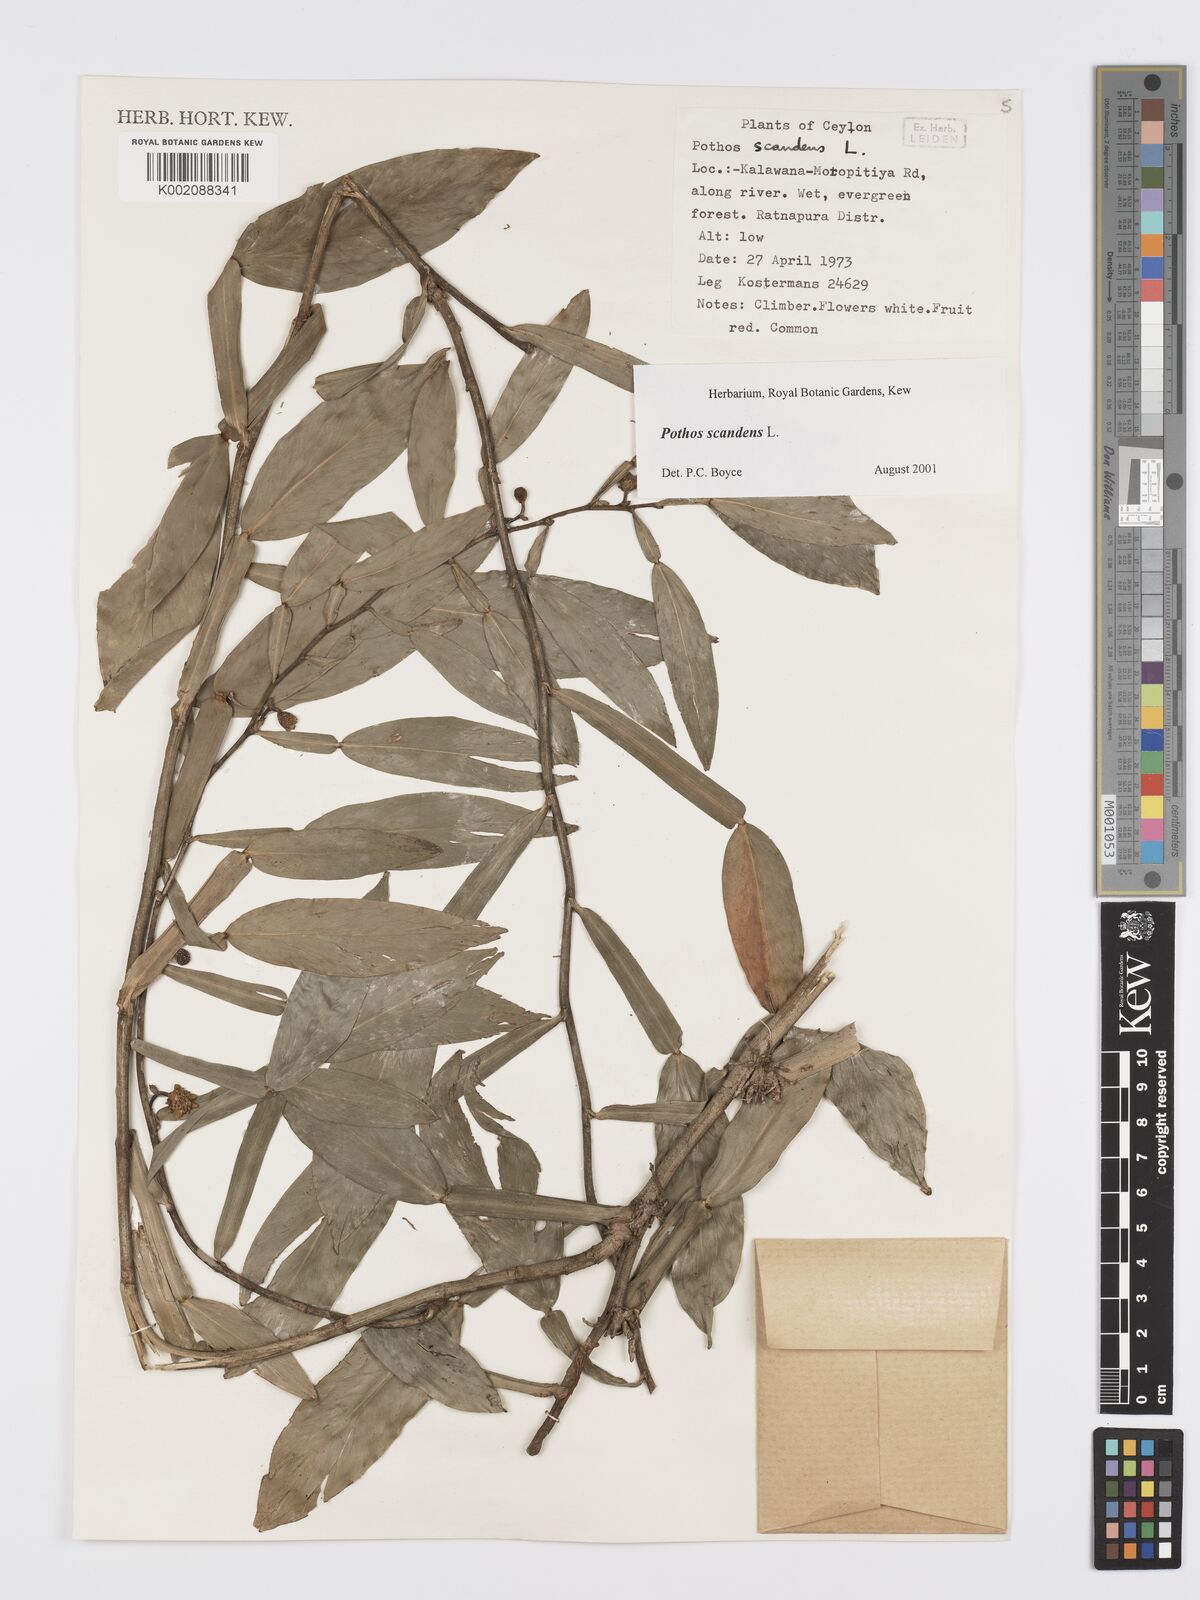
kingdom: Plantae
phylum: Tracheophyta
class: Liliopsida
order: Alismatales
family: Araceae
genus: Pothos
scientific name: Pothos scandens
